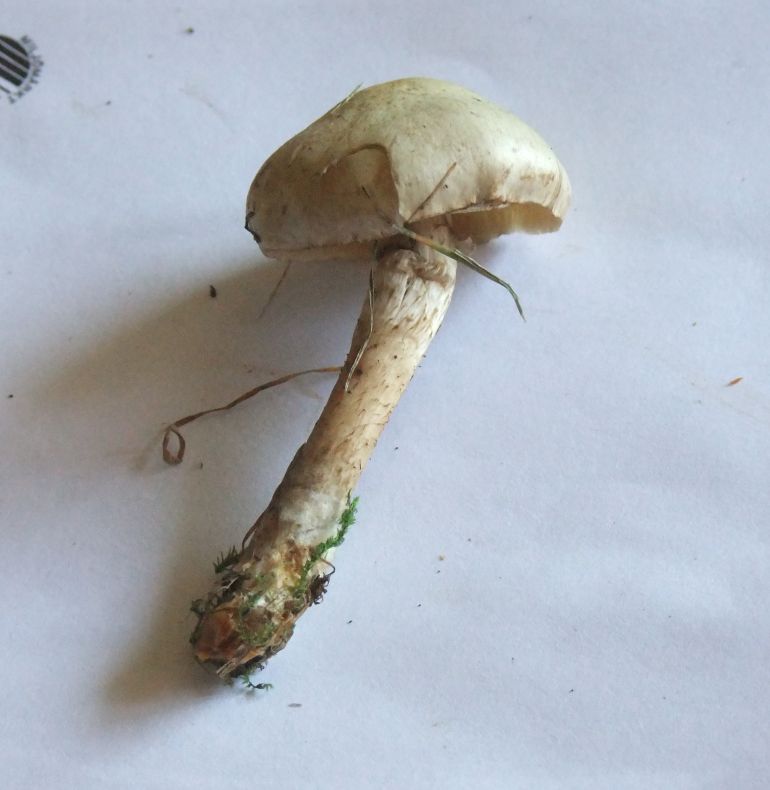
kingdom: Fungi
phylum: Basidiomycota
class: Agaricomycetes
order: Agaricales
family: Strophariaceae
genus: Pholiota
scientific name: Pholiota gummosa
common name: grøngul skælhat
